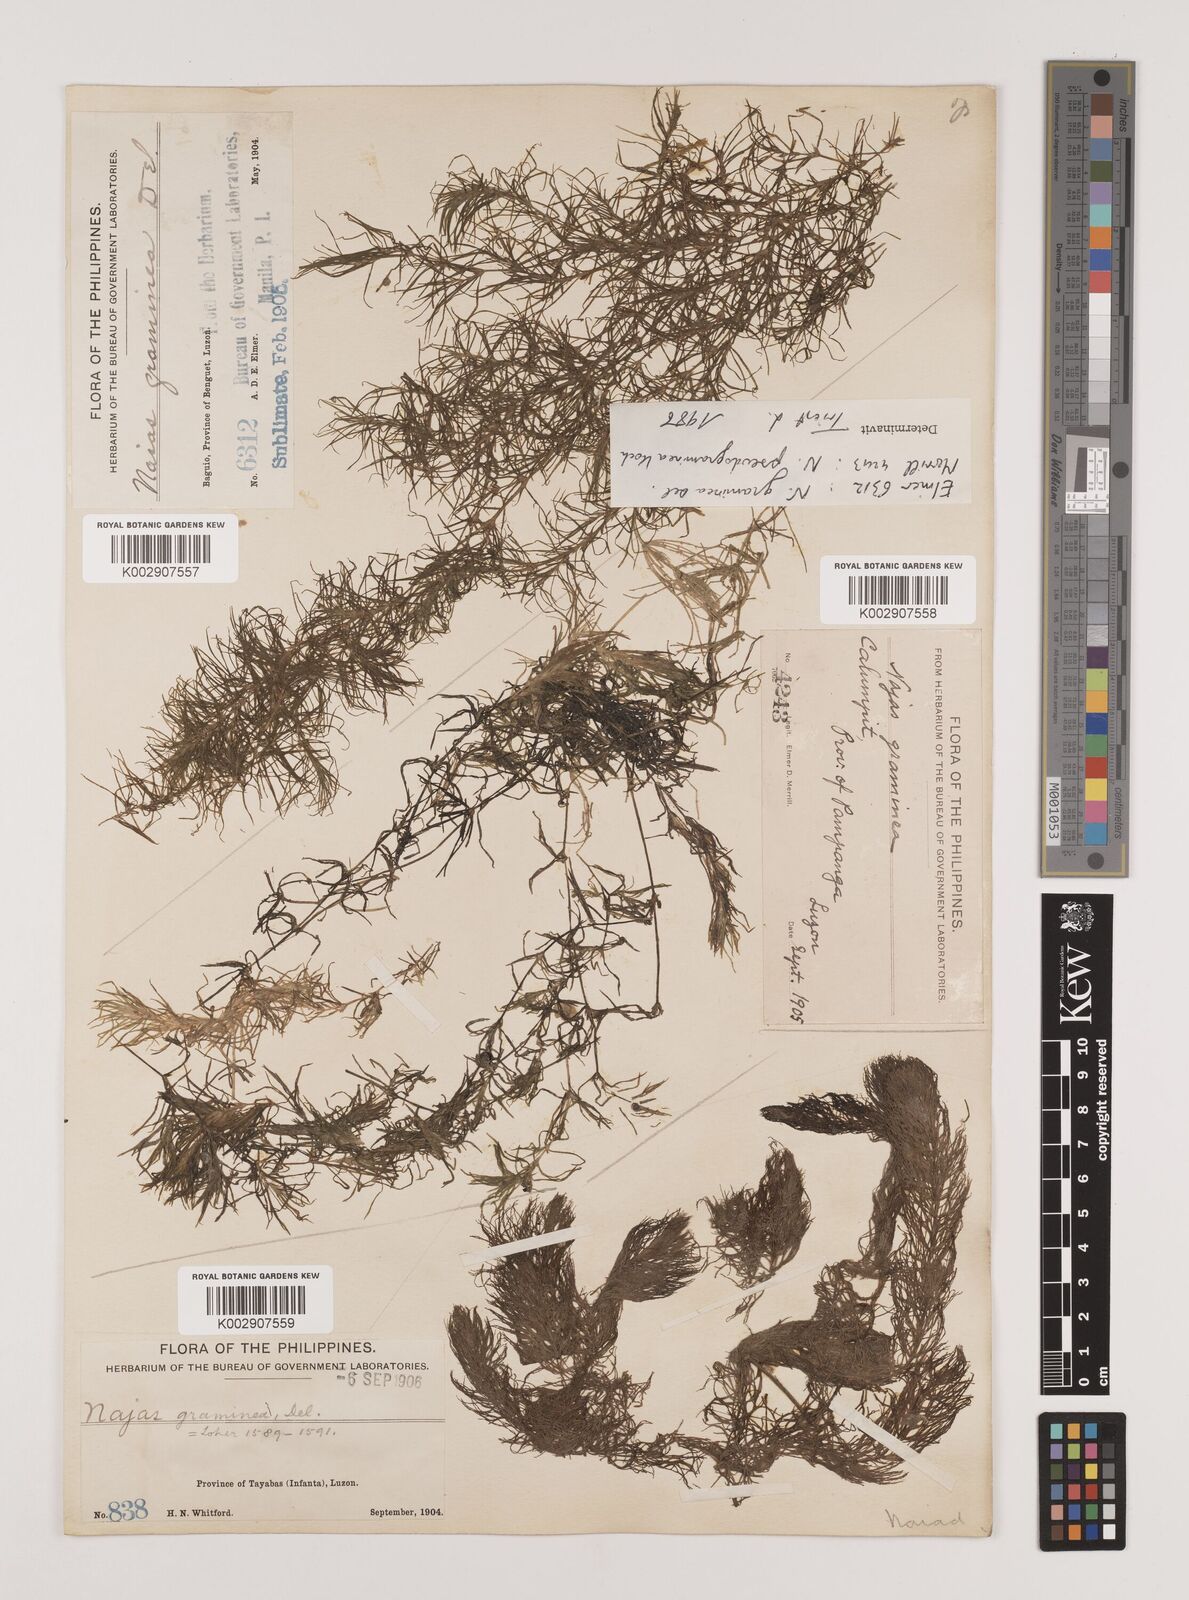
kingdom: Plantae
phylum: Tracheophyta
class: Liliopsida
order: Alismatales
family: Hydrocharitaceae
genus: Najas
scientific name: Najas tenuifolia
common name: Thin-leaved naiad
